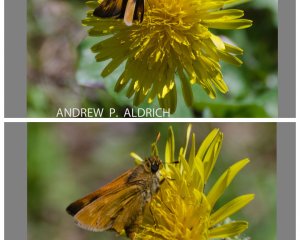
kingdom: Animalia
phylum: Arthropoda
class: Insecta
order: Lepidoptera
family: Hesperiidae
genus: Polites
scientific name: Polites
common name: Long Dash Skipper
